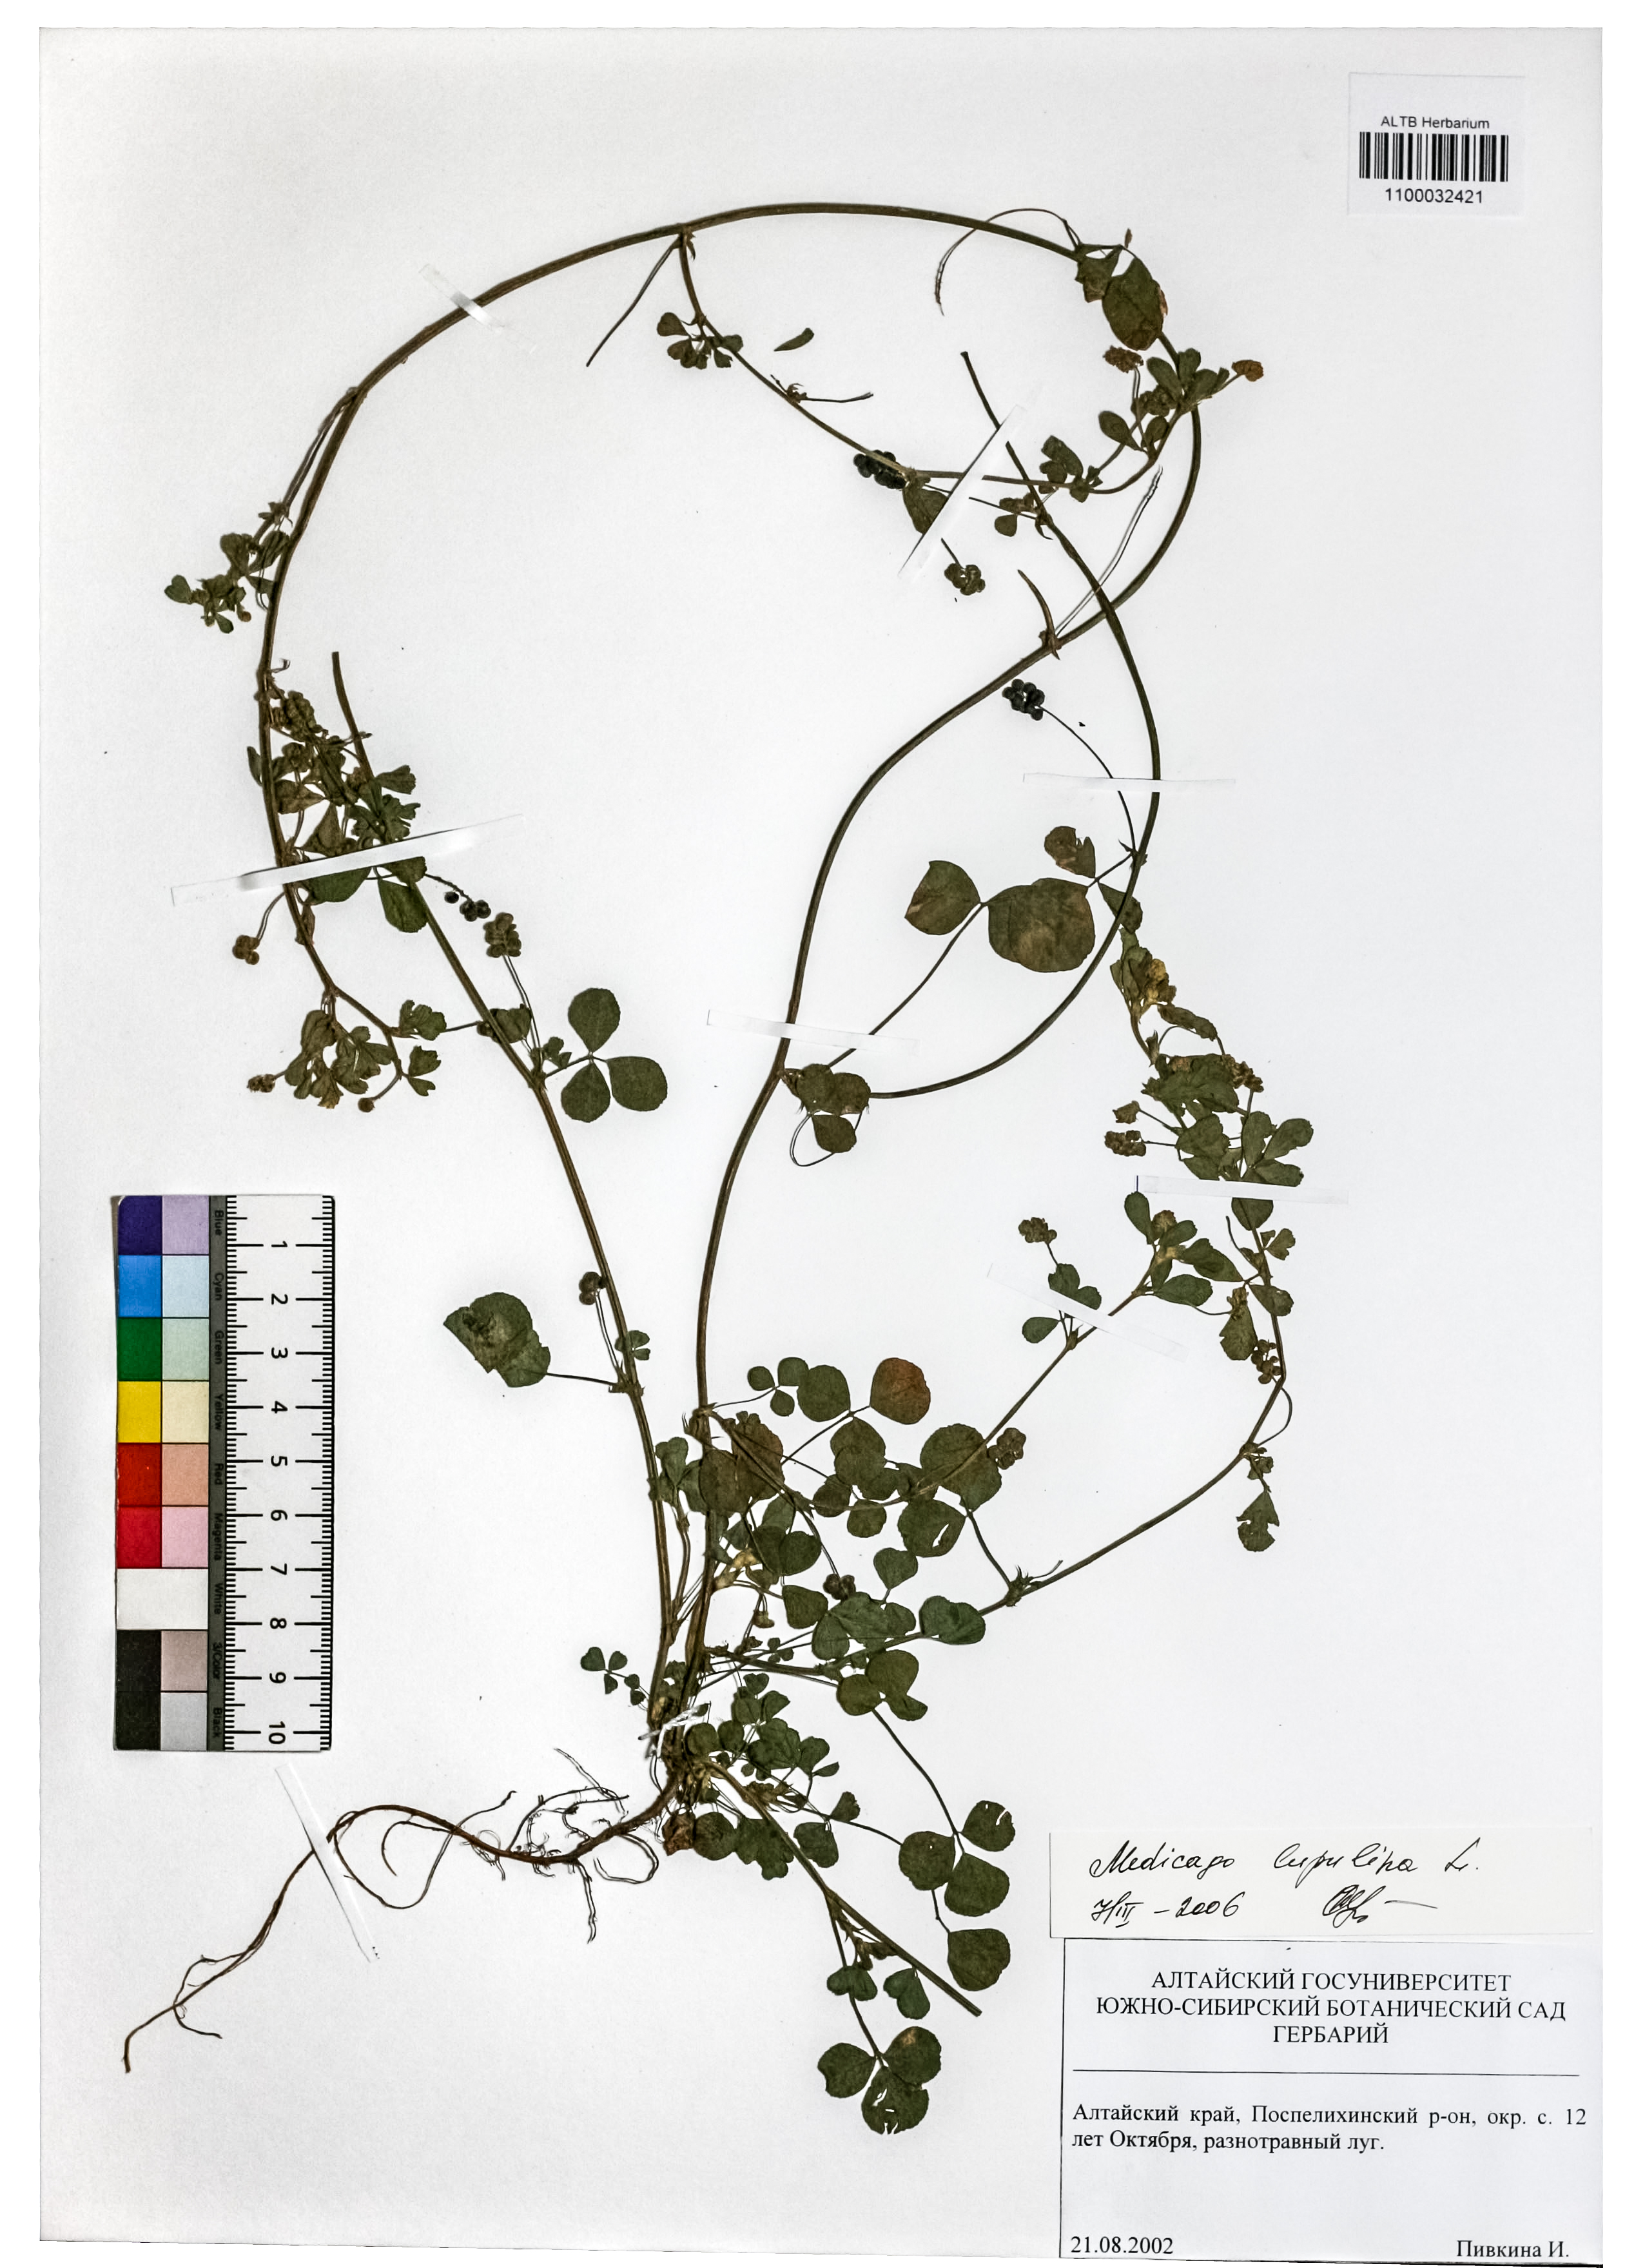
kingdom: Plantae
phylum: Tracheophyta
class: Magnoliopsida
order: Fabales
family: Fabaceae
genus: Medicago
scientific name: Medicago lupulina
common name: Black medick
